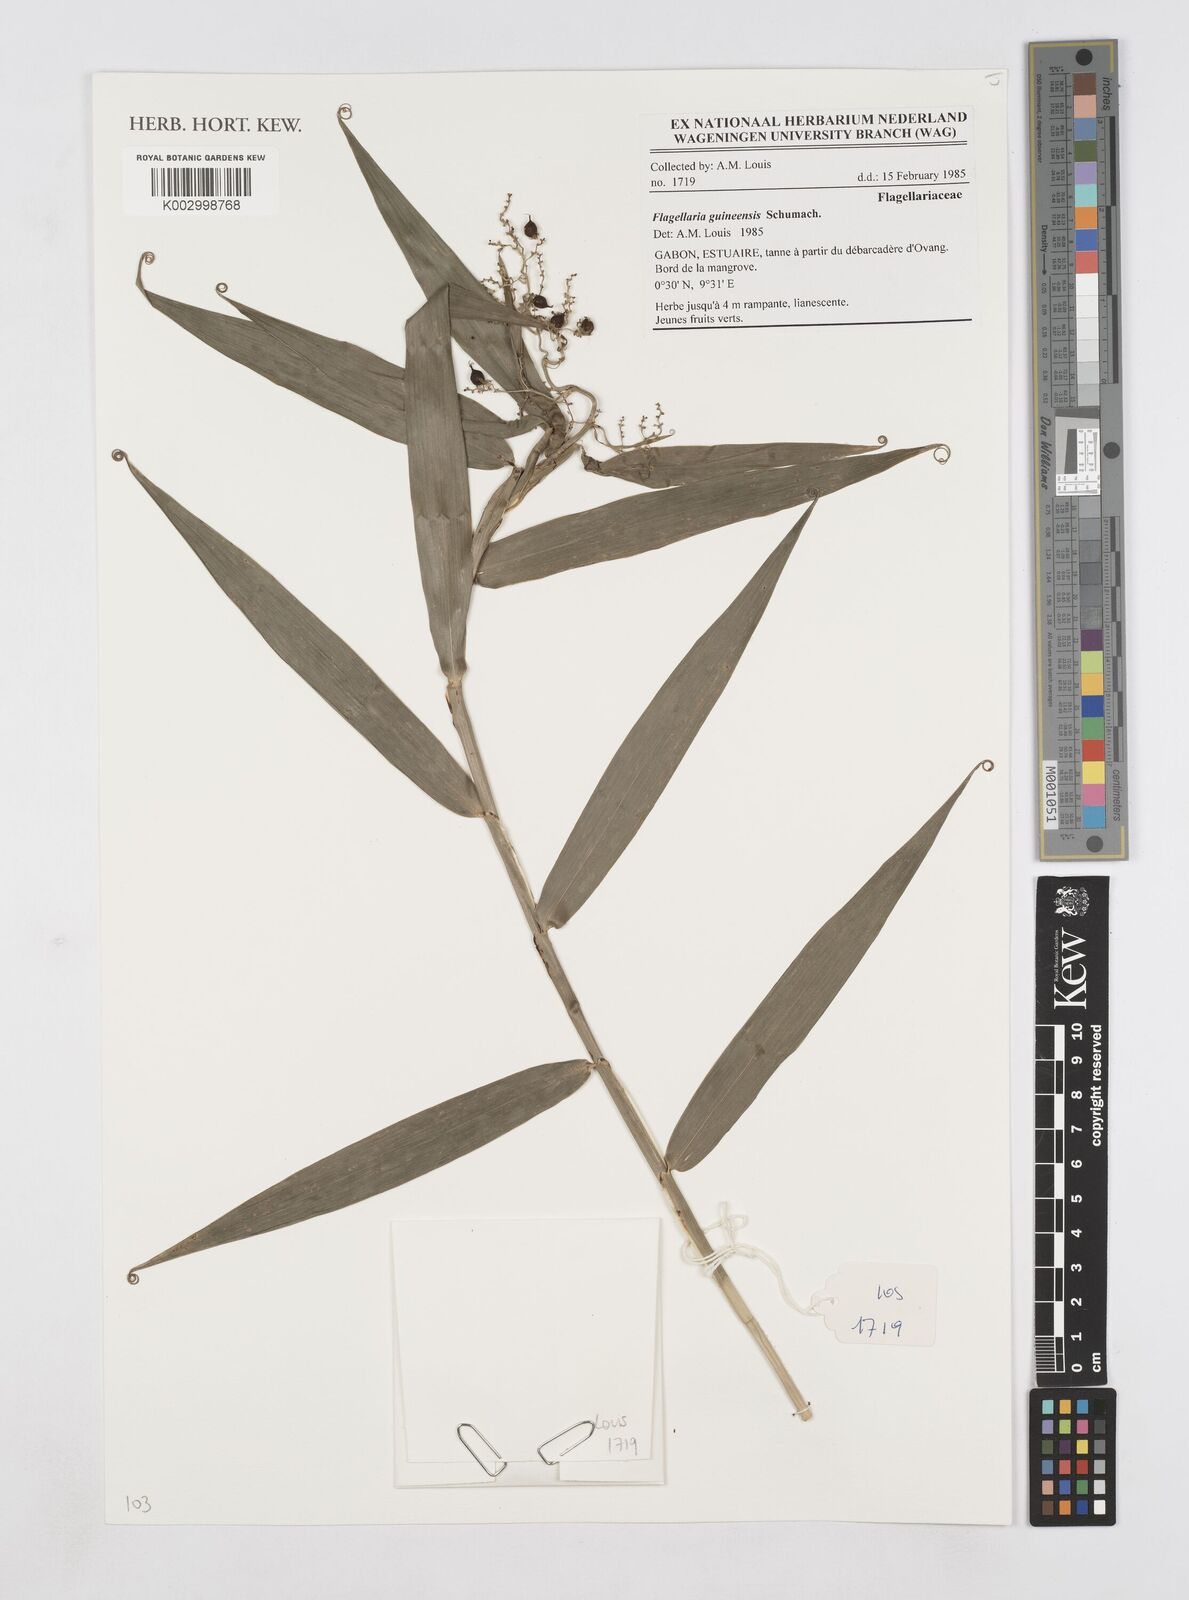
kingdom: Plantae
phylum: Tracheophyta
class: Liliopsida
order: Poales
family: Flagellariaceae
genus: Flagellaria
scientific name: Flagellaria guineensis
